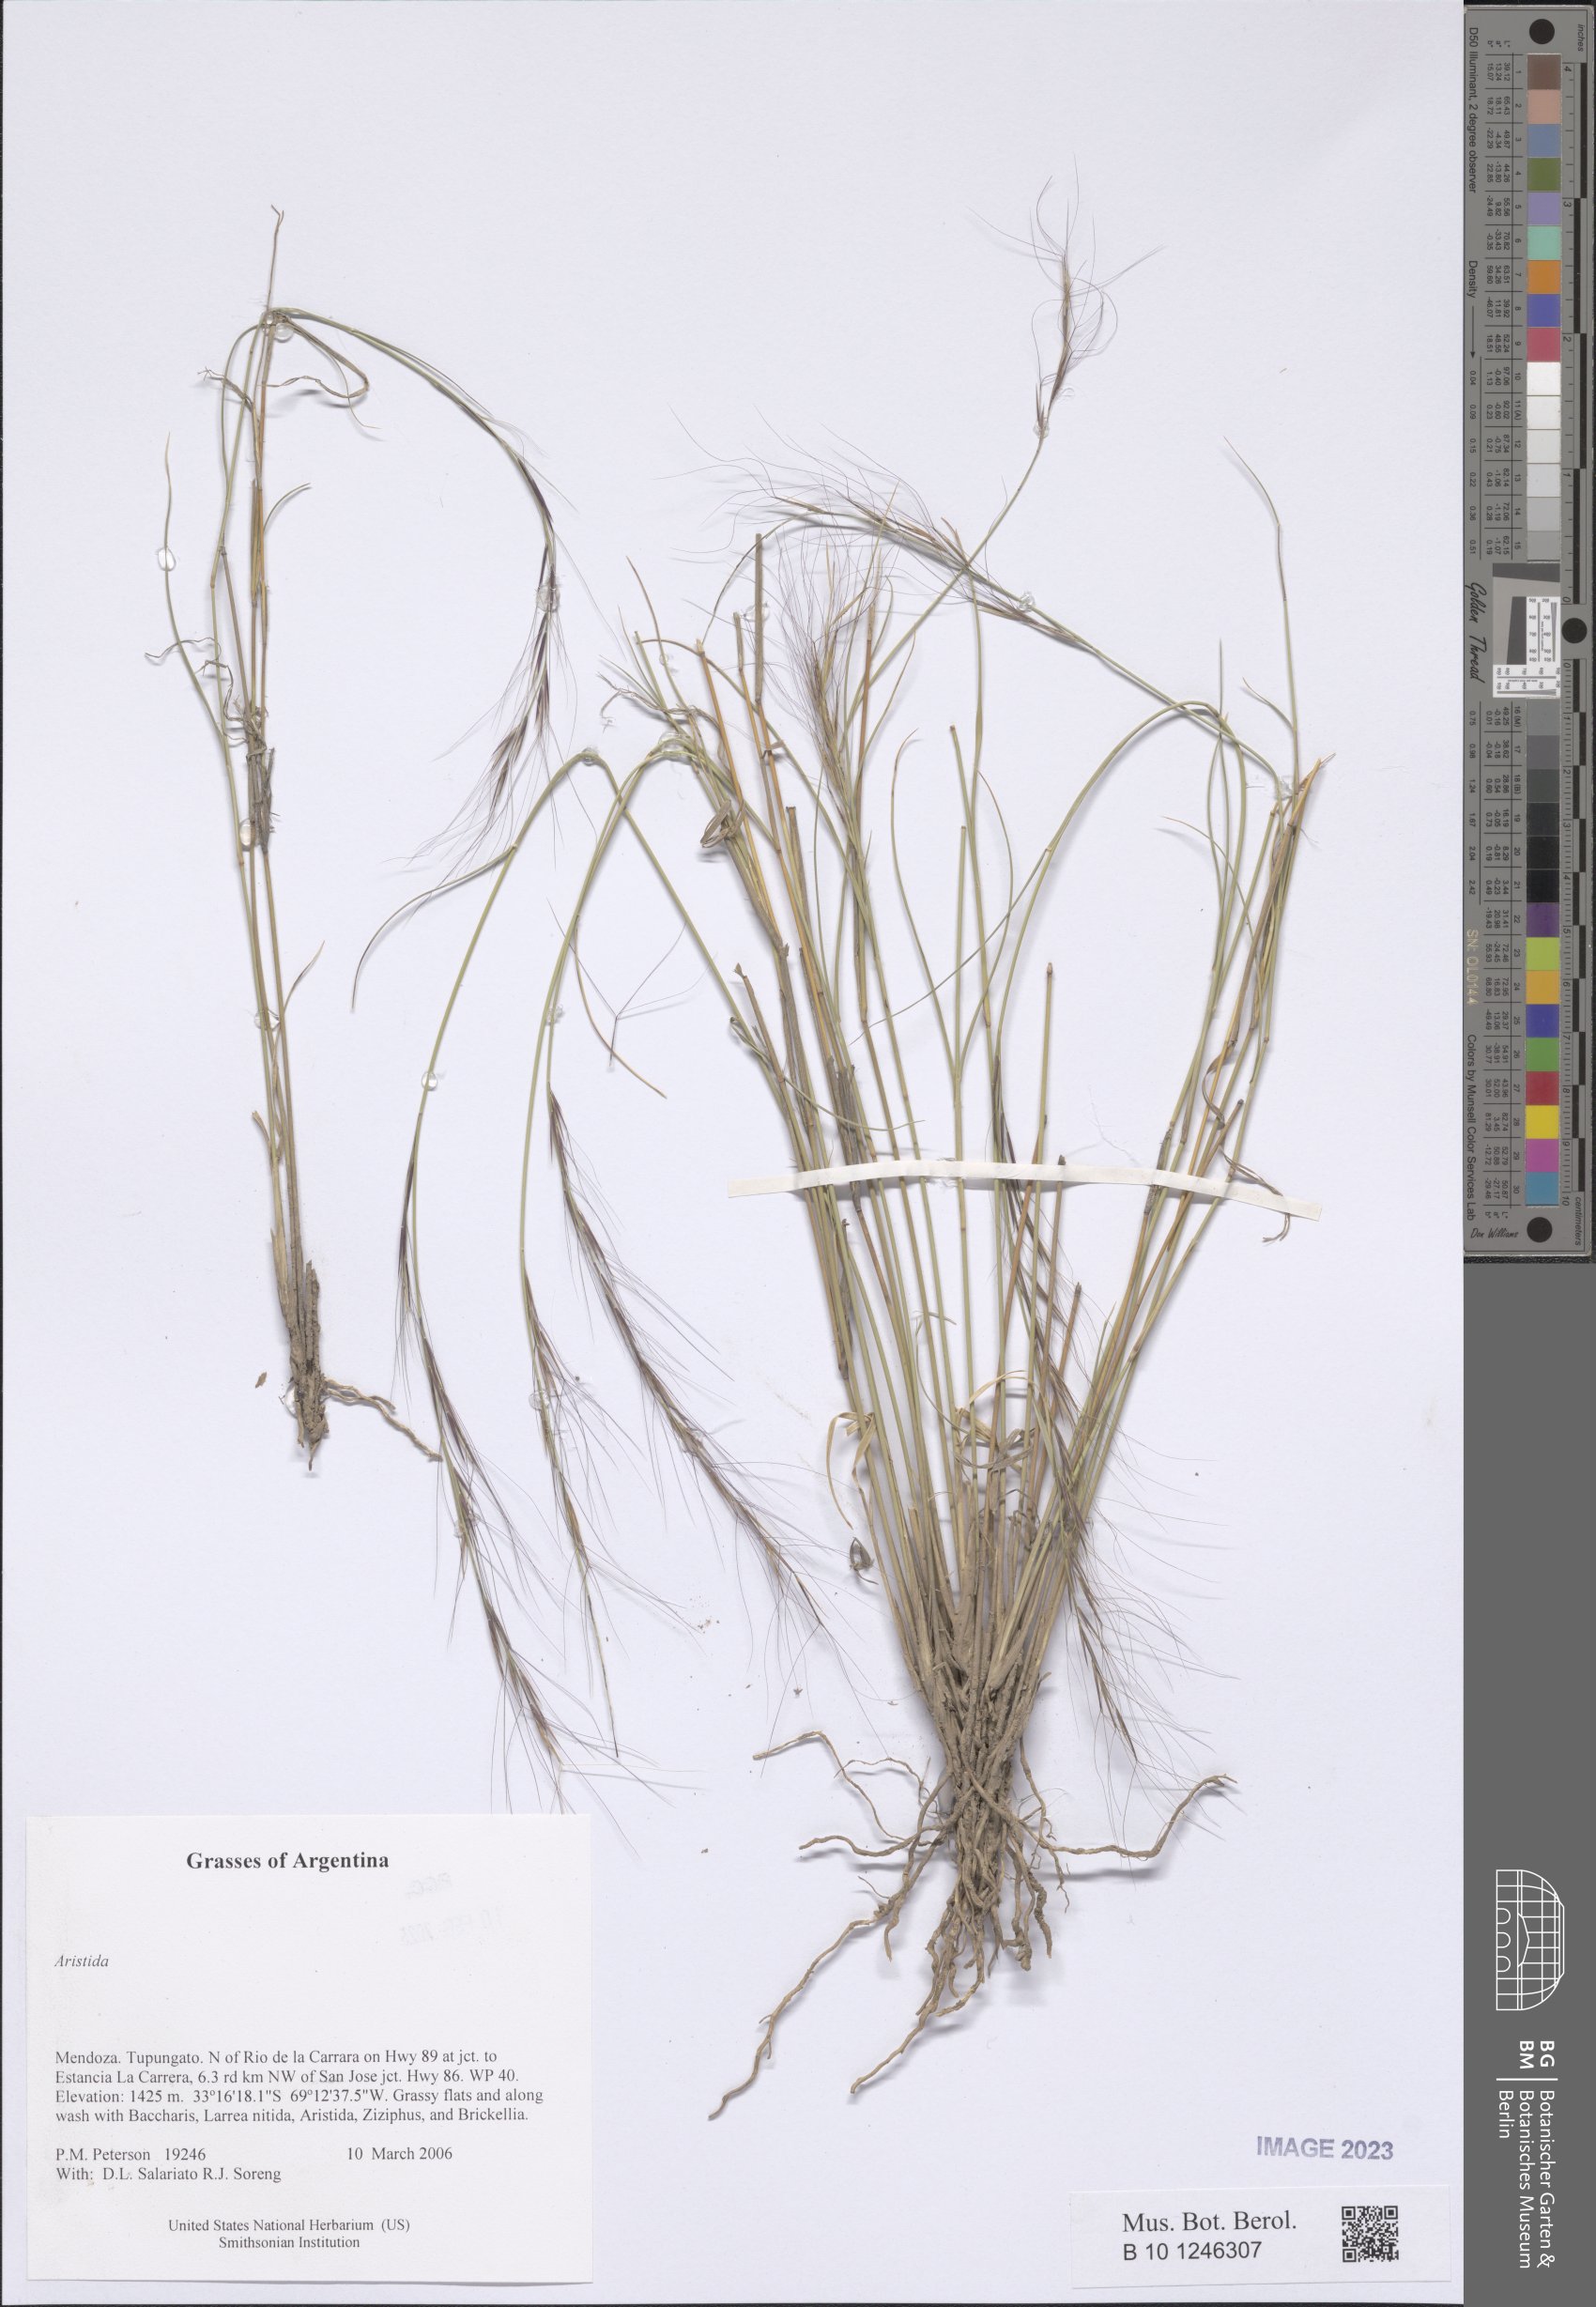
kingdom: Plantae
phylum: Tracheophyta
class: Liliopsida
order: Poales
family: Poaceae
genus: Aristida
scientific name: Aristida
